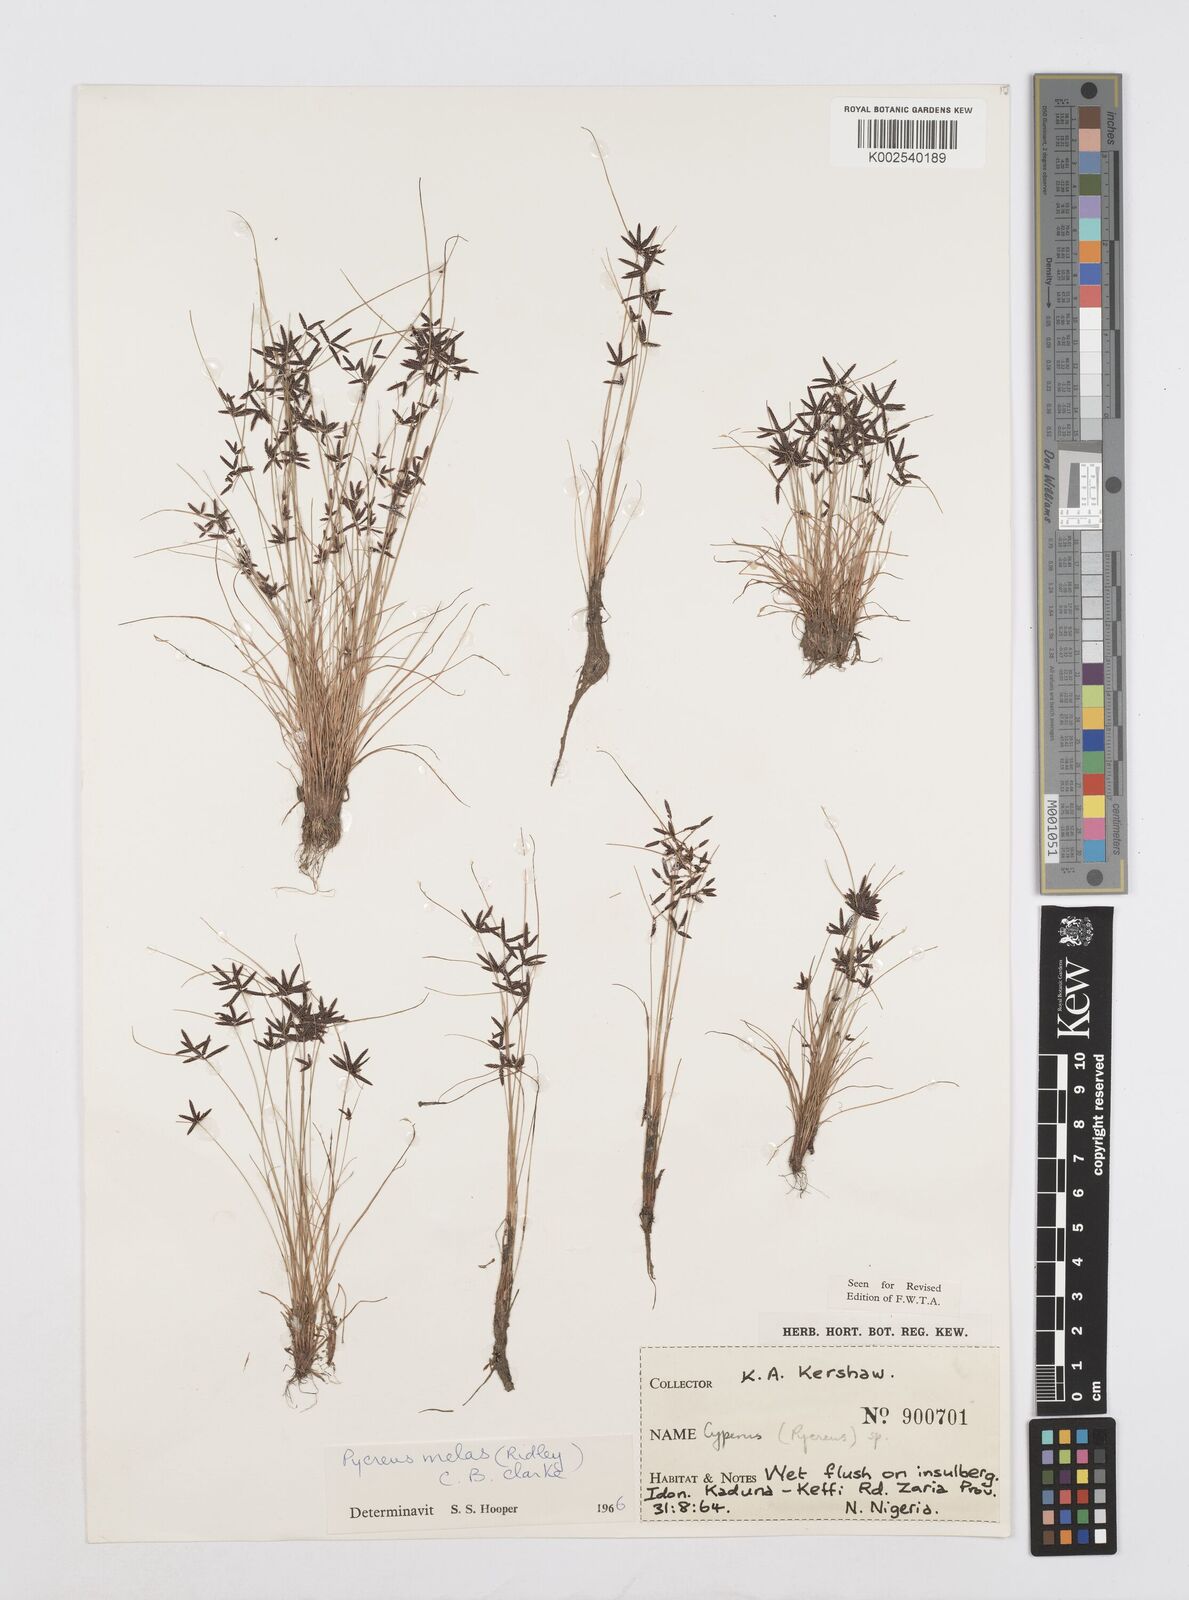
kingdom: Plantae
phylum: Tracheophyta
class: Liliopsida
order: Poales
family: Cyperaceae
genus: Cyperus
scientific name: Cyperus melas
